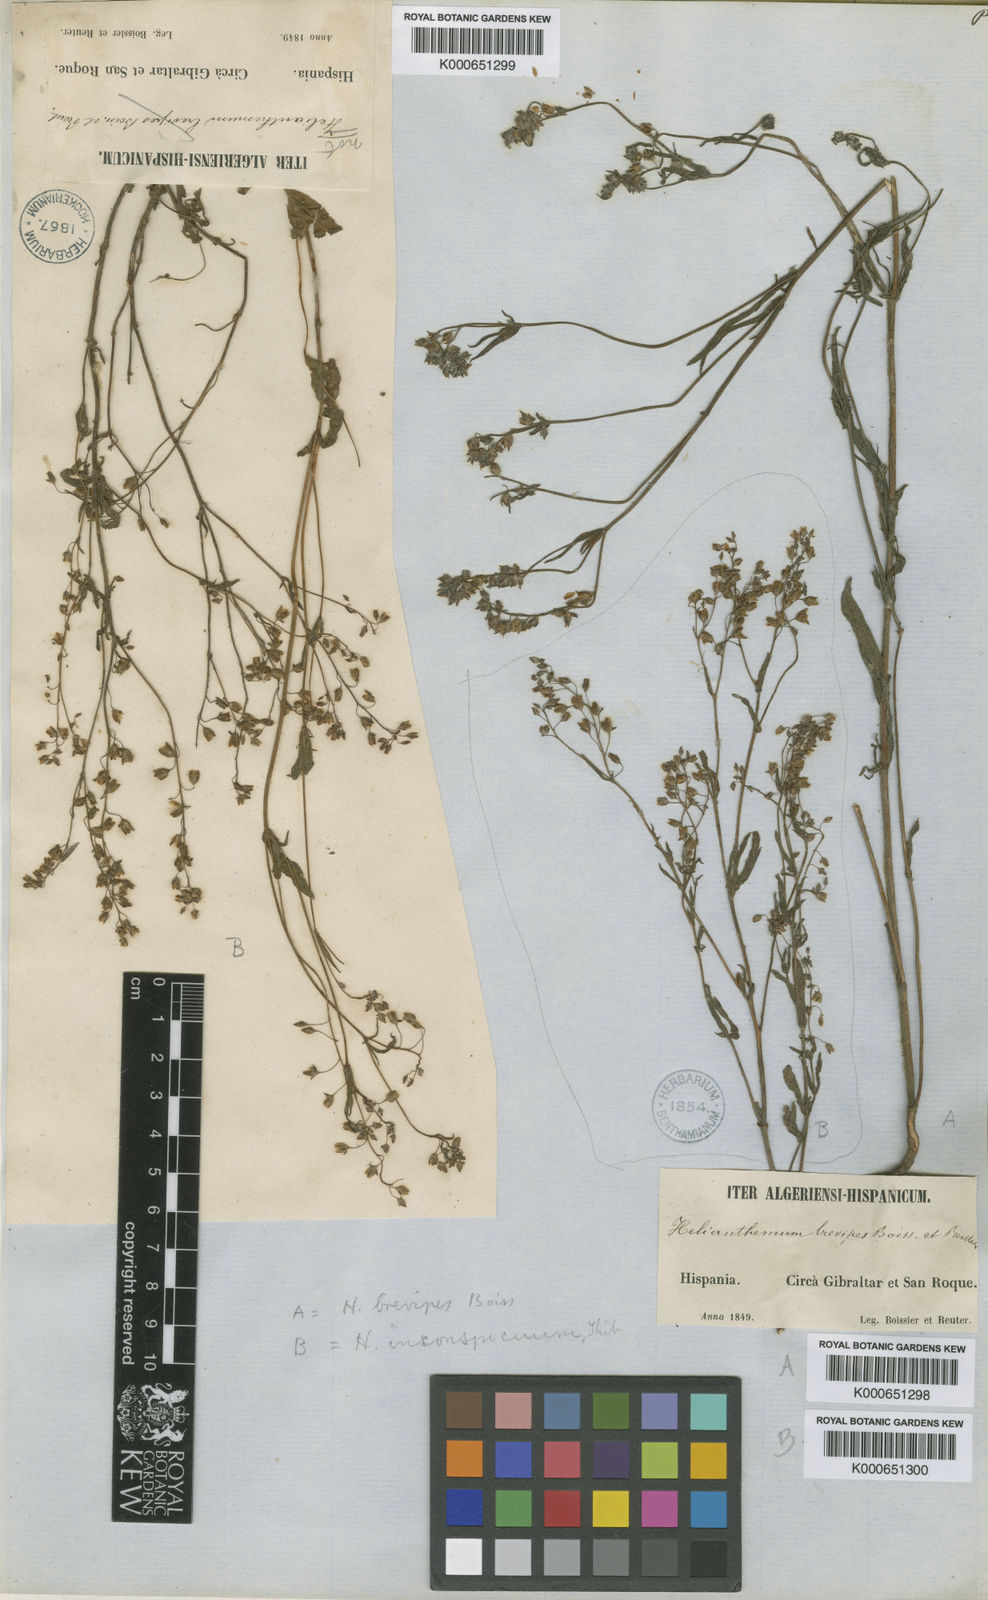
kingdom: Plantae
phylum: Tracheophyta
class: Magnoliopsida
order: Malvales
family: Cistaceae
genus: Tuberaria
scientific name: Tuberaria guttata
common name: Spotted rock-rose
